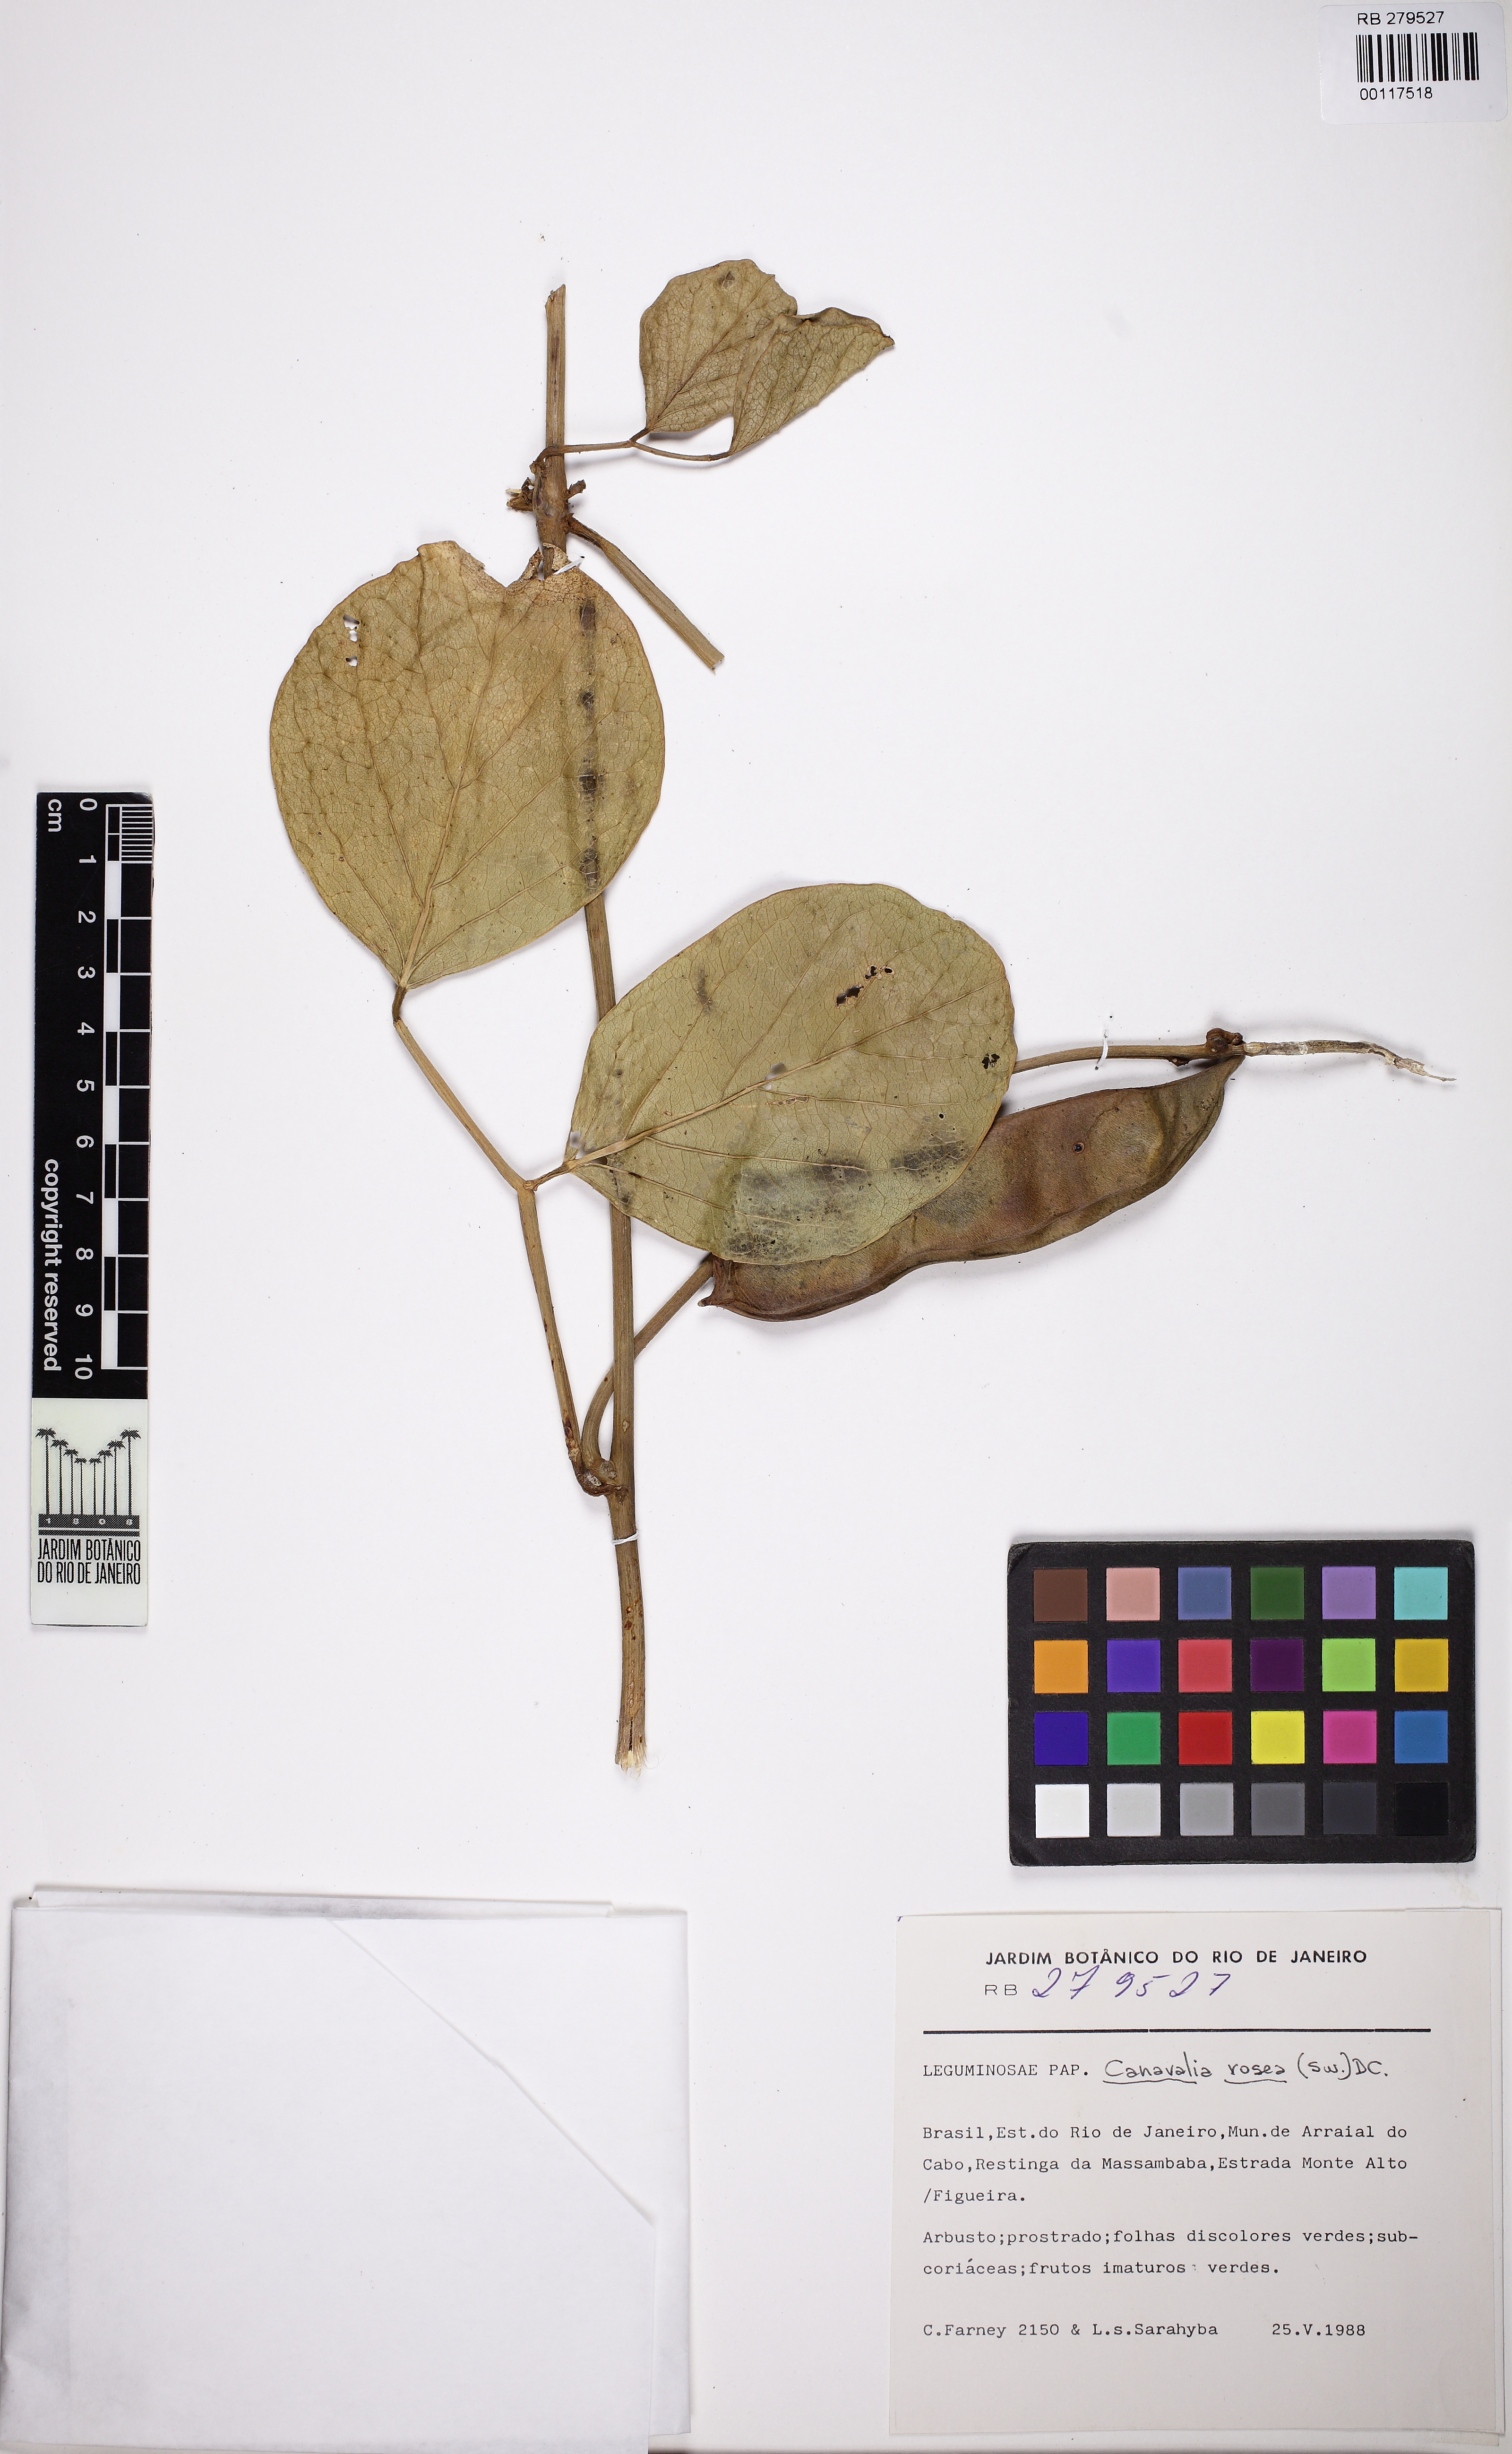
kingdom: Plantae
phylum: Tracheophyta
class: Magnoliopsida
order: Fabales
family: Fabaceae
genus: Canavalia
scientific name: Canavalia rosea
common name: Beach-bean
